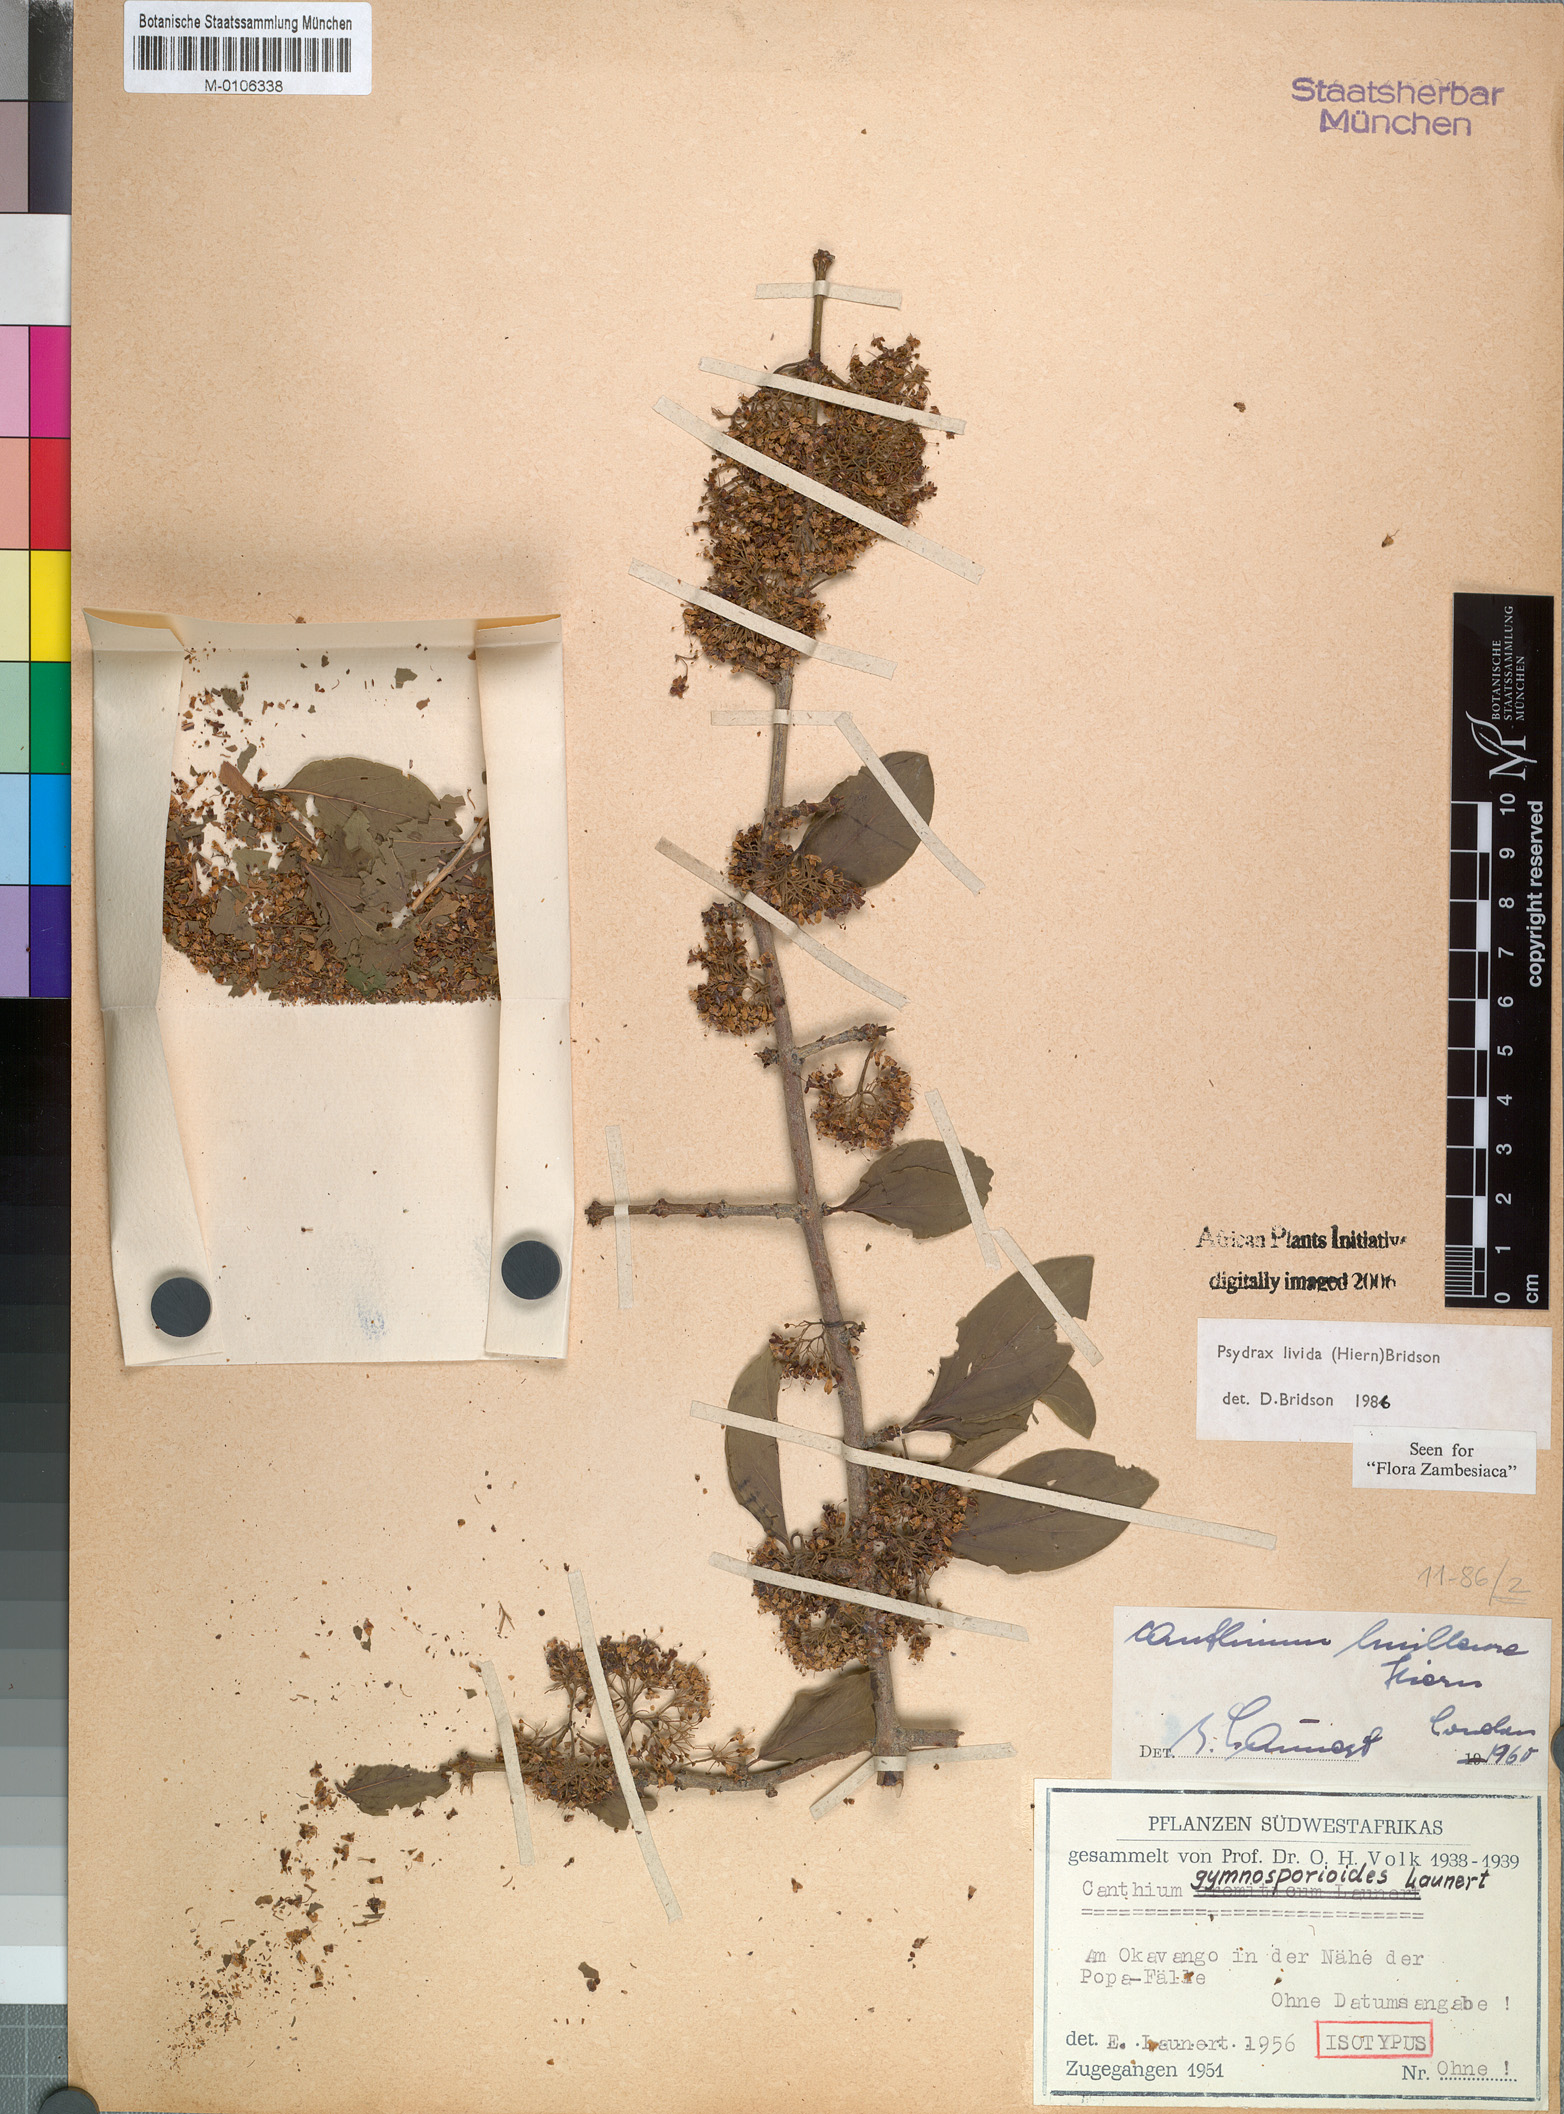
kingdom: Plantae
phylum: Tracheophyta
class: Magnoliopsida
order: Gentianales
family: Rubiaceae
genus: Psydrax
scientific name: Psydrax lividus
